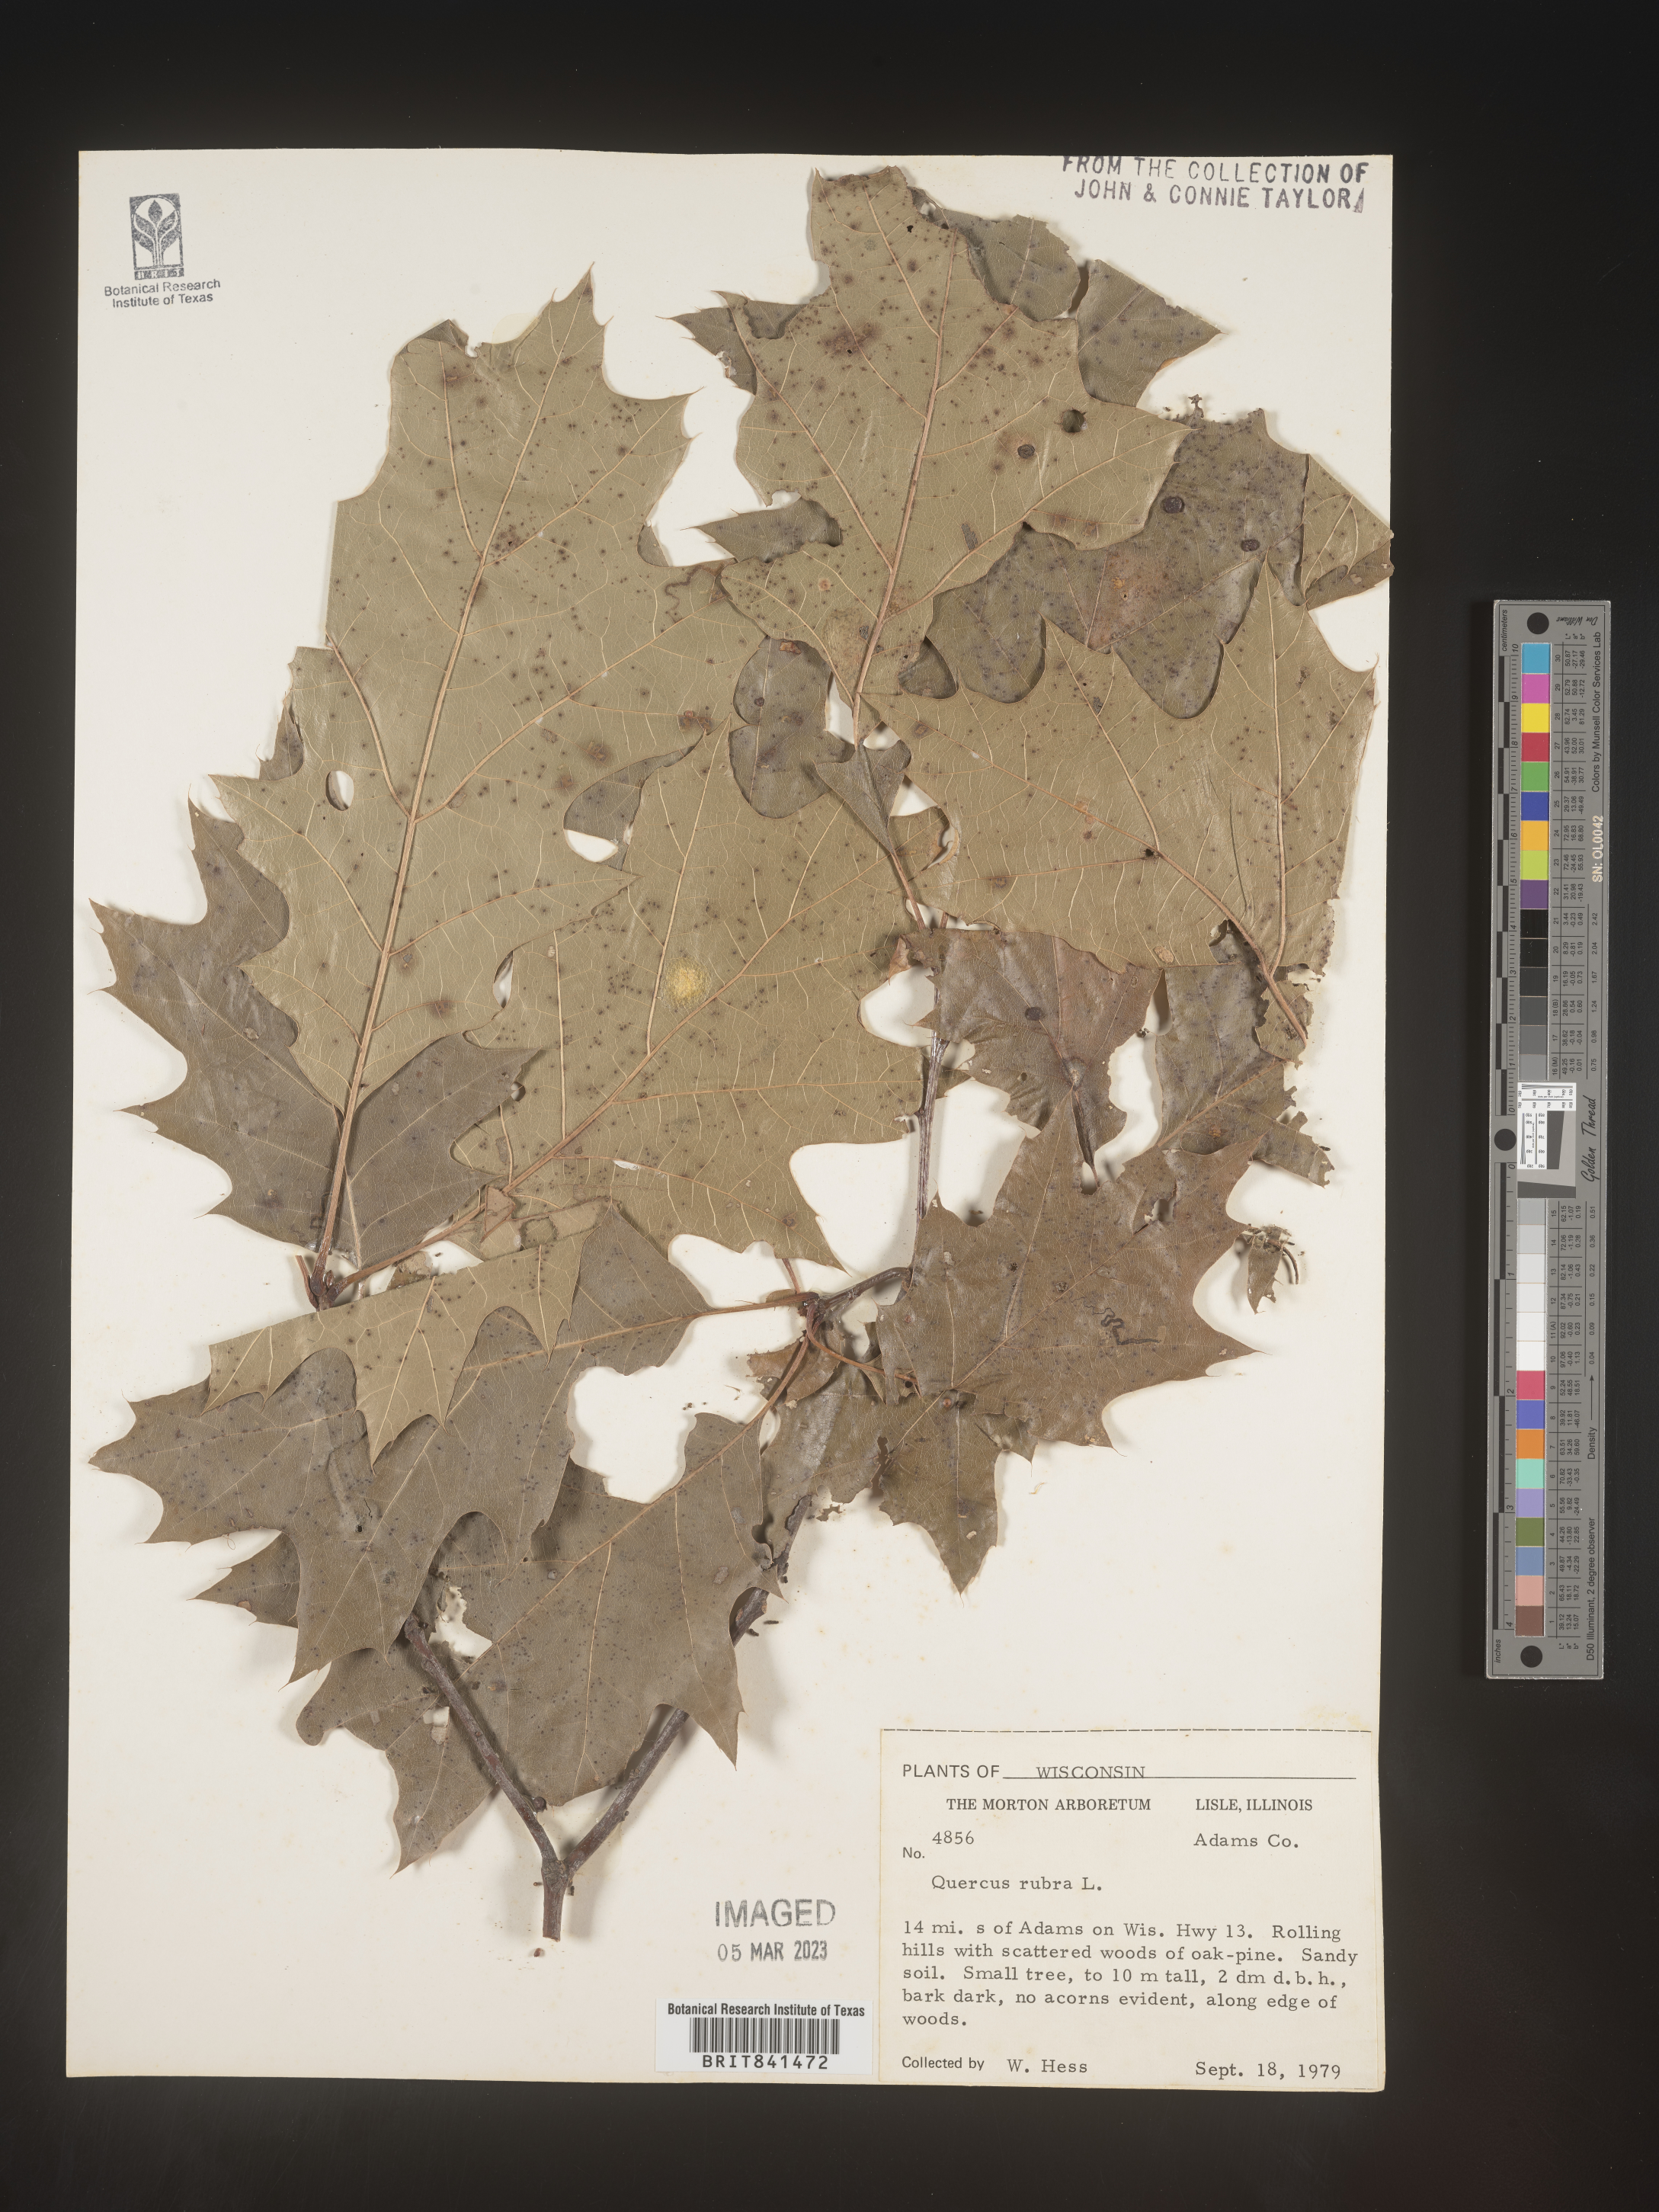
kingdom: Plantae
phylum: Tracheophyta
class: Magnoliopsida
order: Fagales
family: Fagaceae
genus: Quercus
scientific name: Quercus rubra
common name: Red oak
